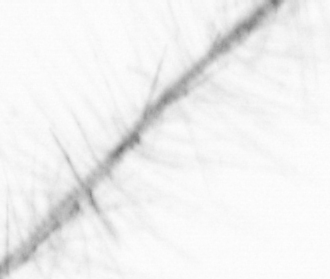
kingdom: Chromista
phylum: Ochrophyta
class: Bacillariophyceae
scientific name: Bacillariophyceae
